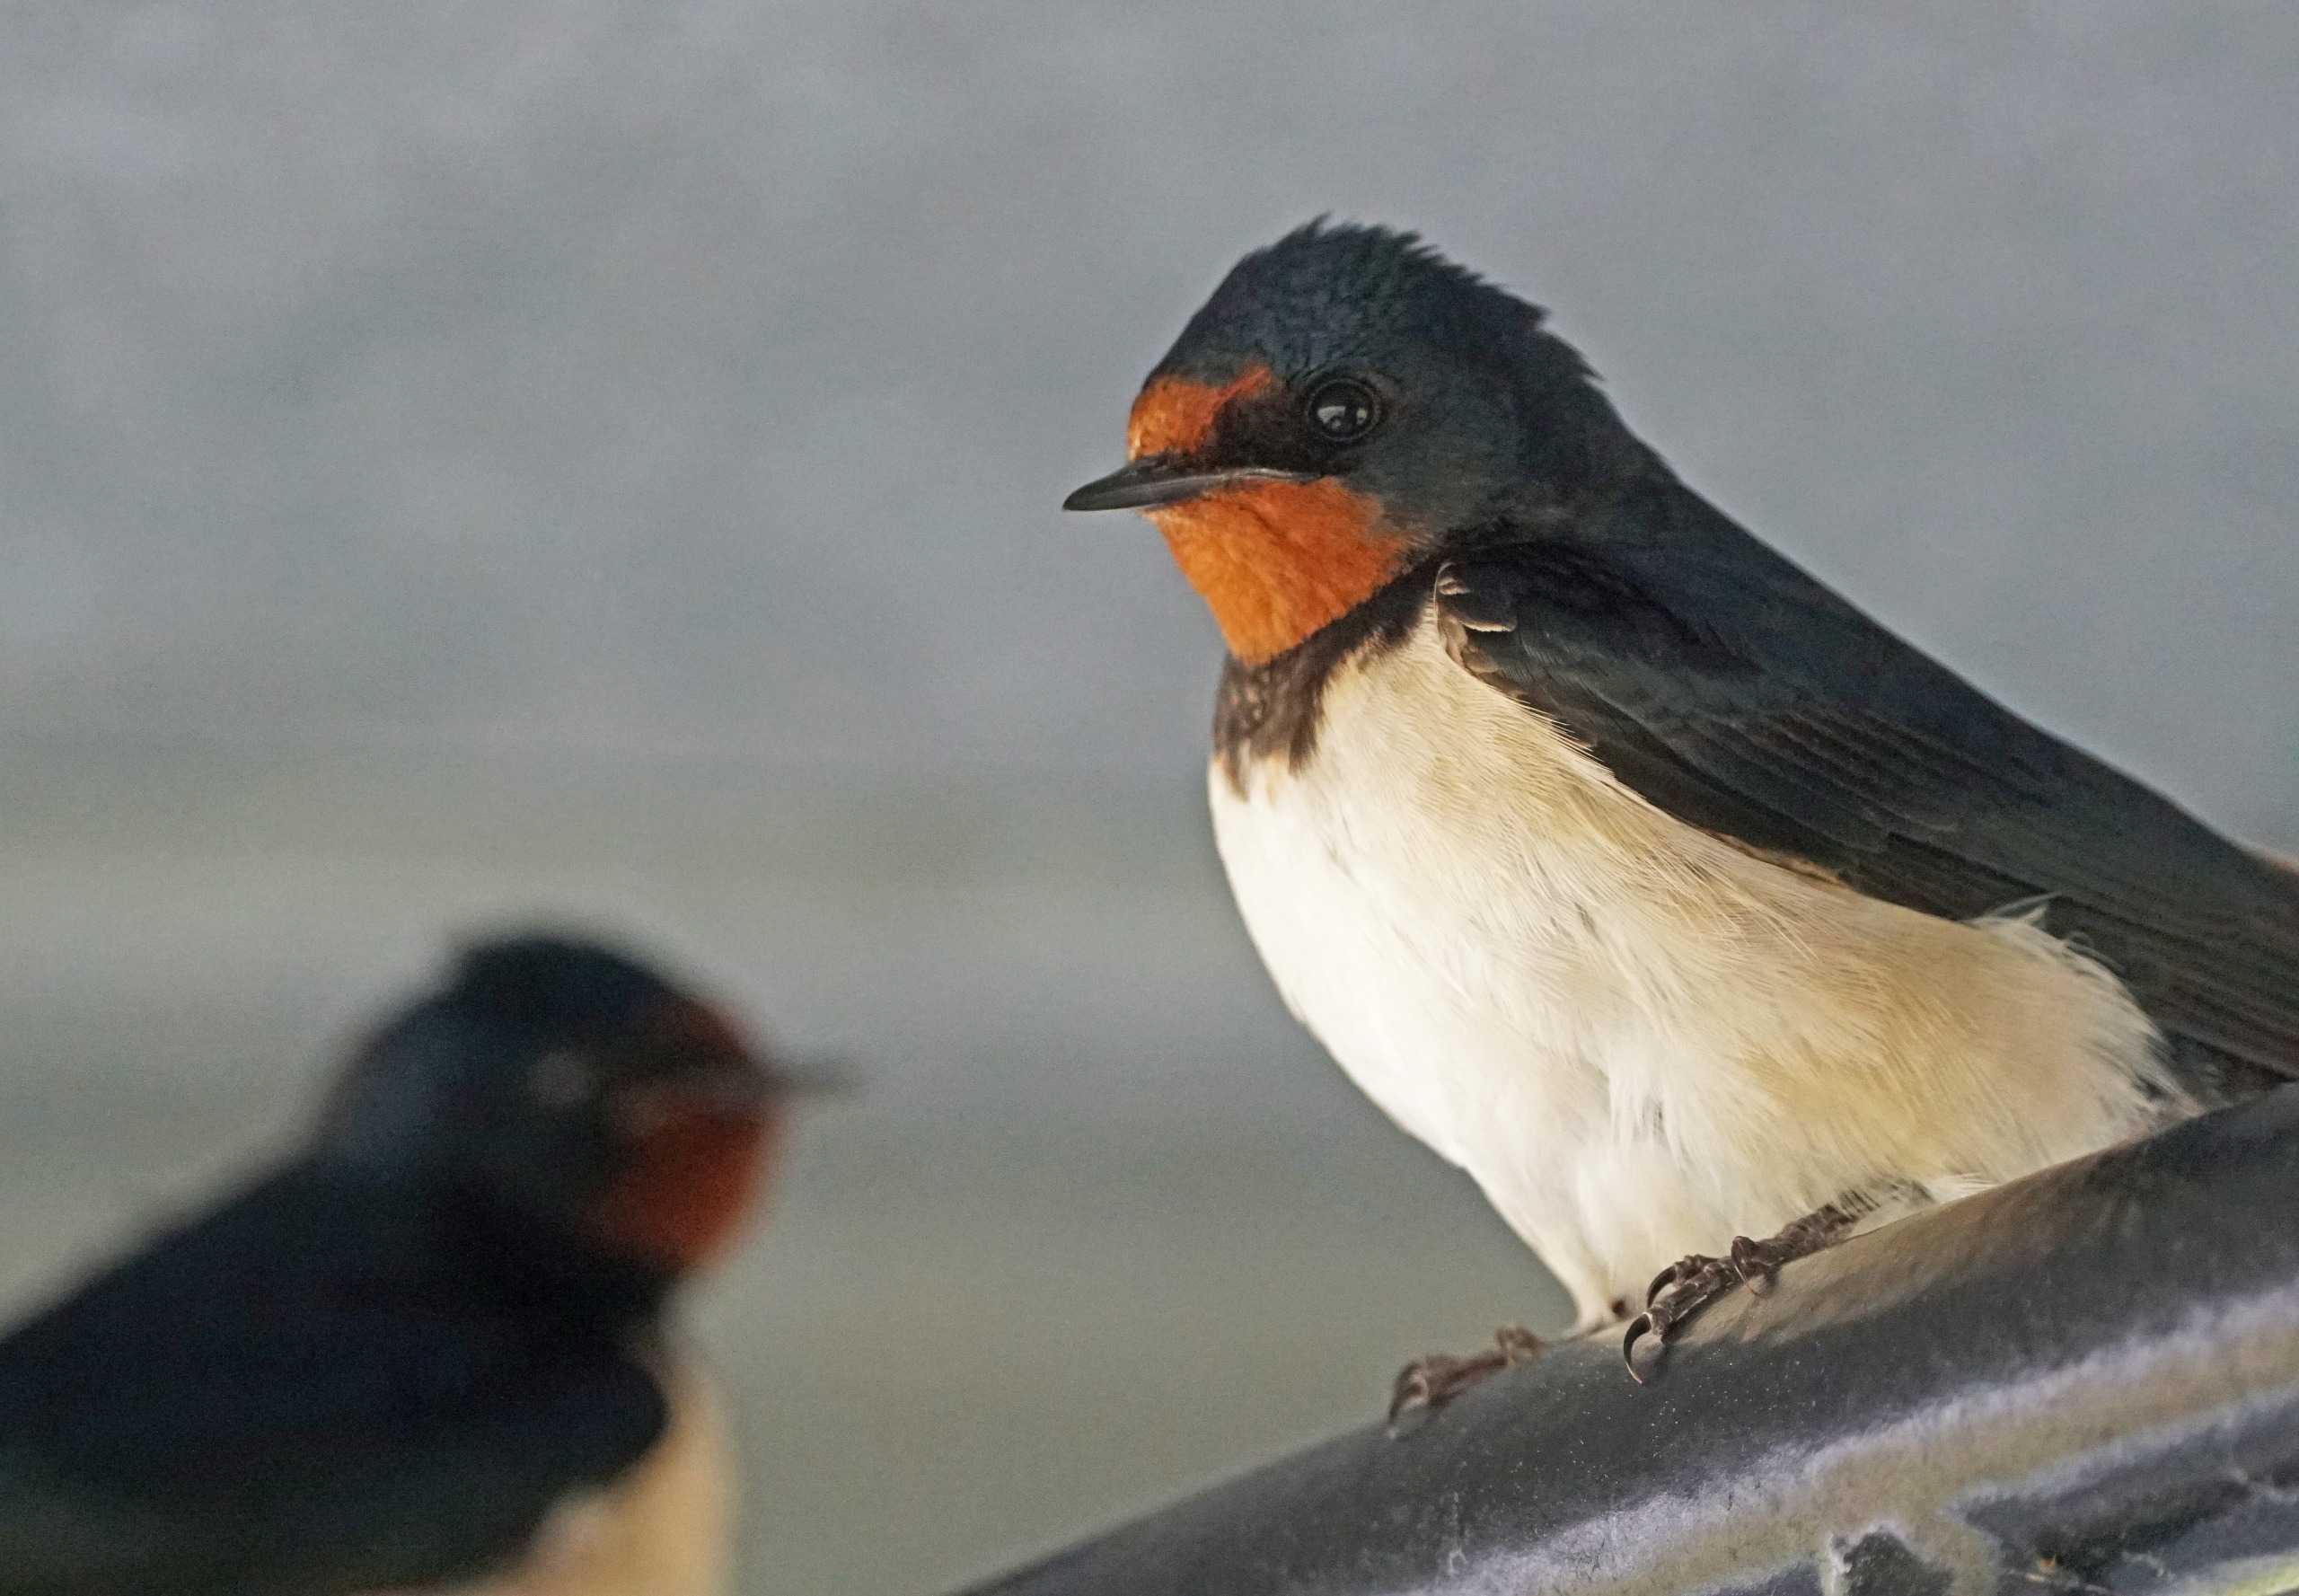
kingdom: Animalia
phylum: Chordata
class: Aves
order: Passeriformes
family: Hirundinidae
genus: Hirundo
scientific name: Hirundo rustica
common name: Landsvale
